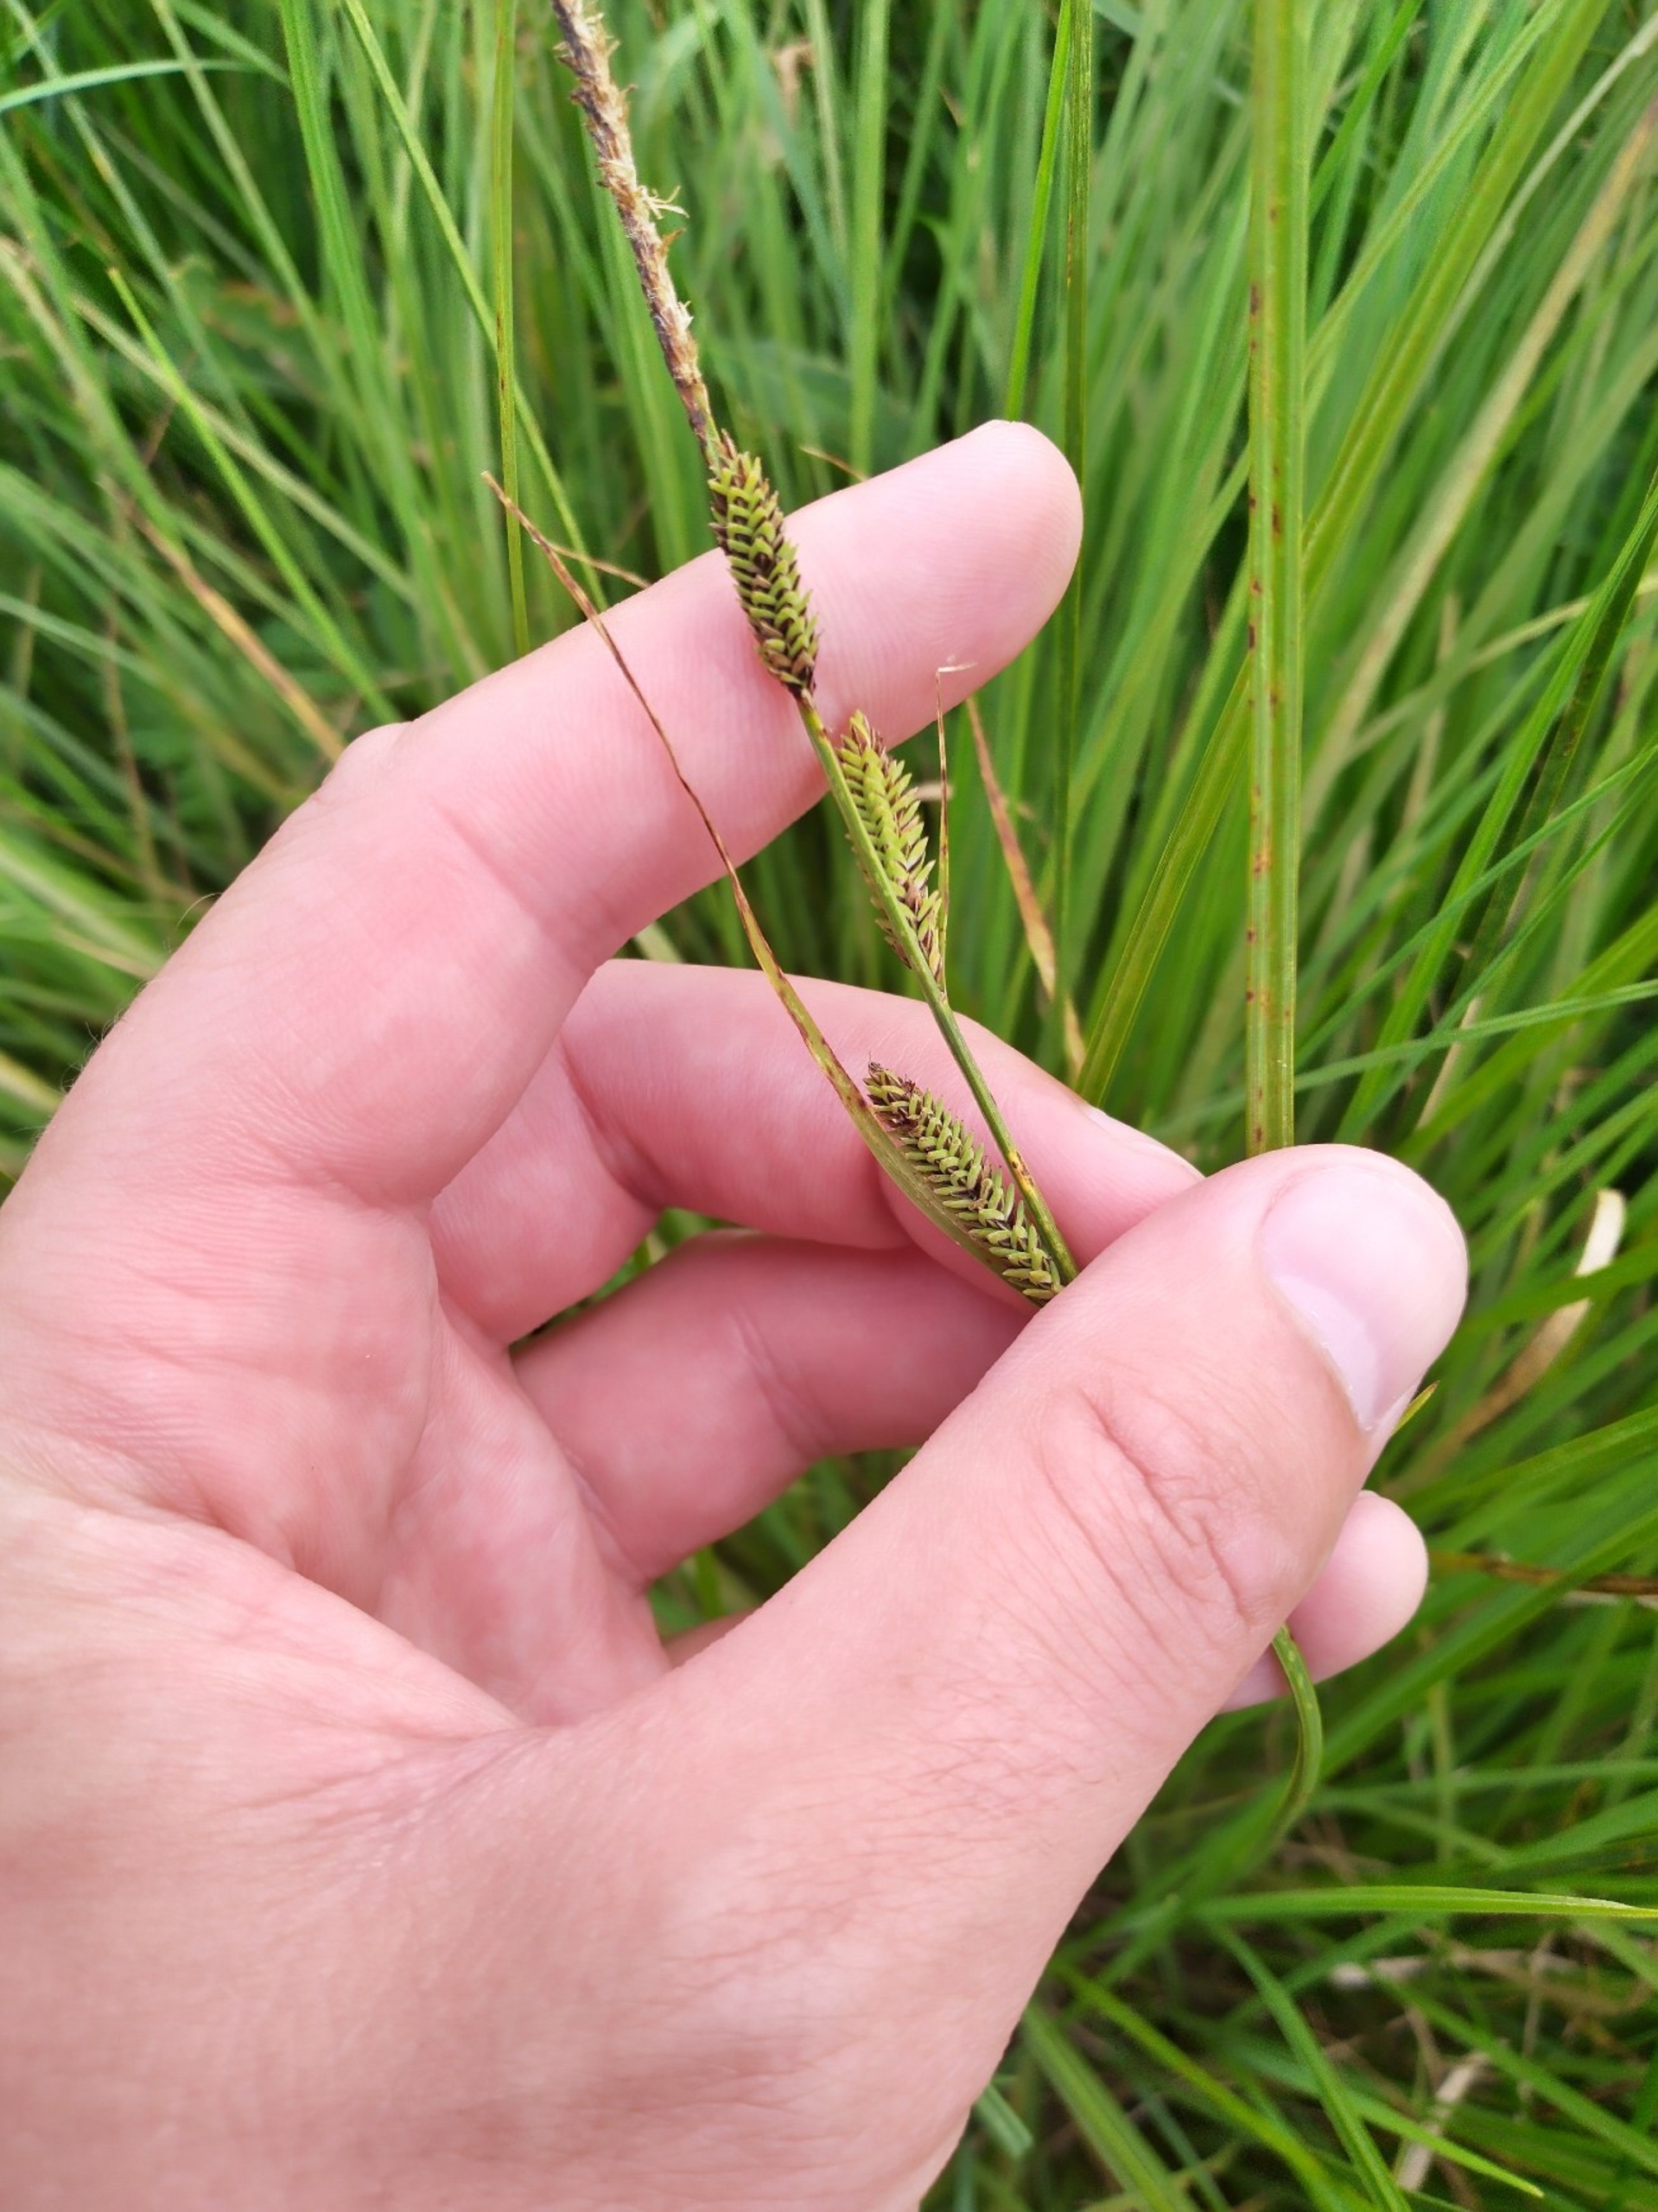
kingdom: Plantae
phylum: Tracheophyta
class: Liliopsida
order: Poales
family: Cyperaceae
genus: Carex
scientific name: Carex nigra
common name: Knold-star
